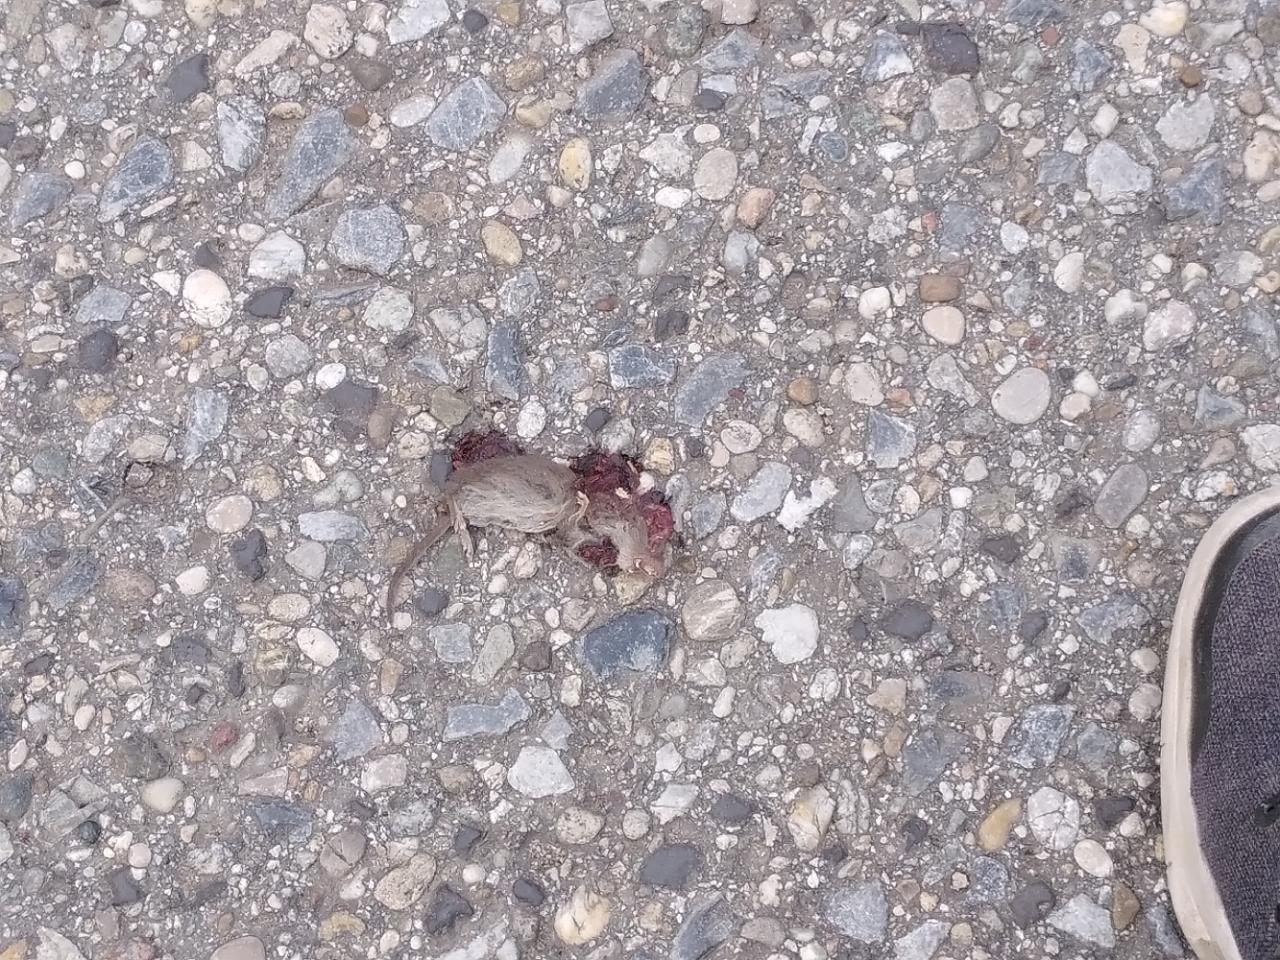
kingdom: Animalia
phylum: Chordata
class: Mammalia
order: Soricomorpha
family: Soricidae
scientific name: Soricidae
